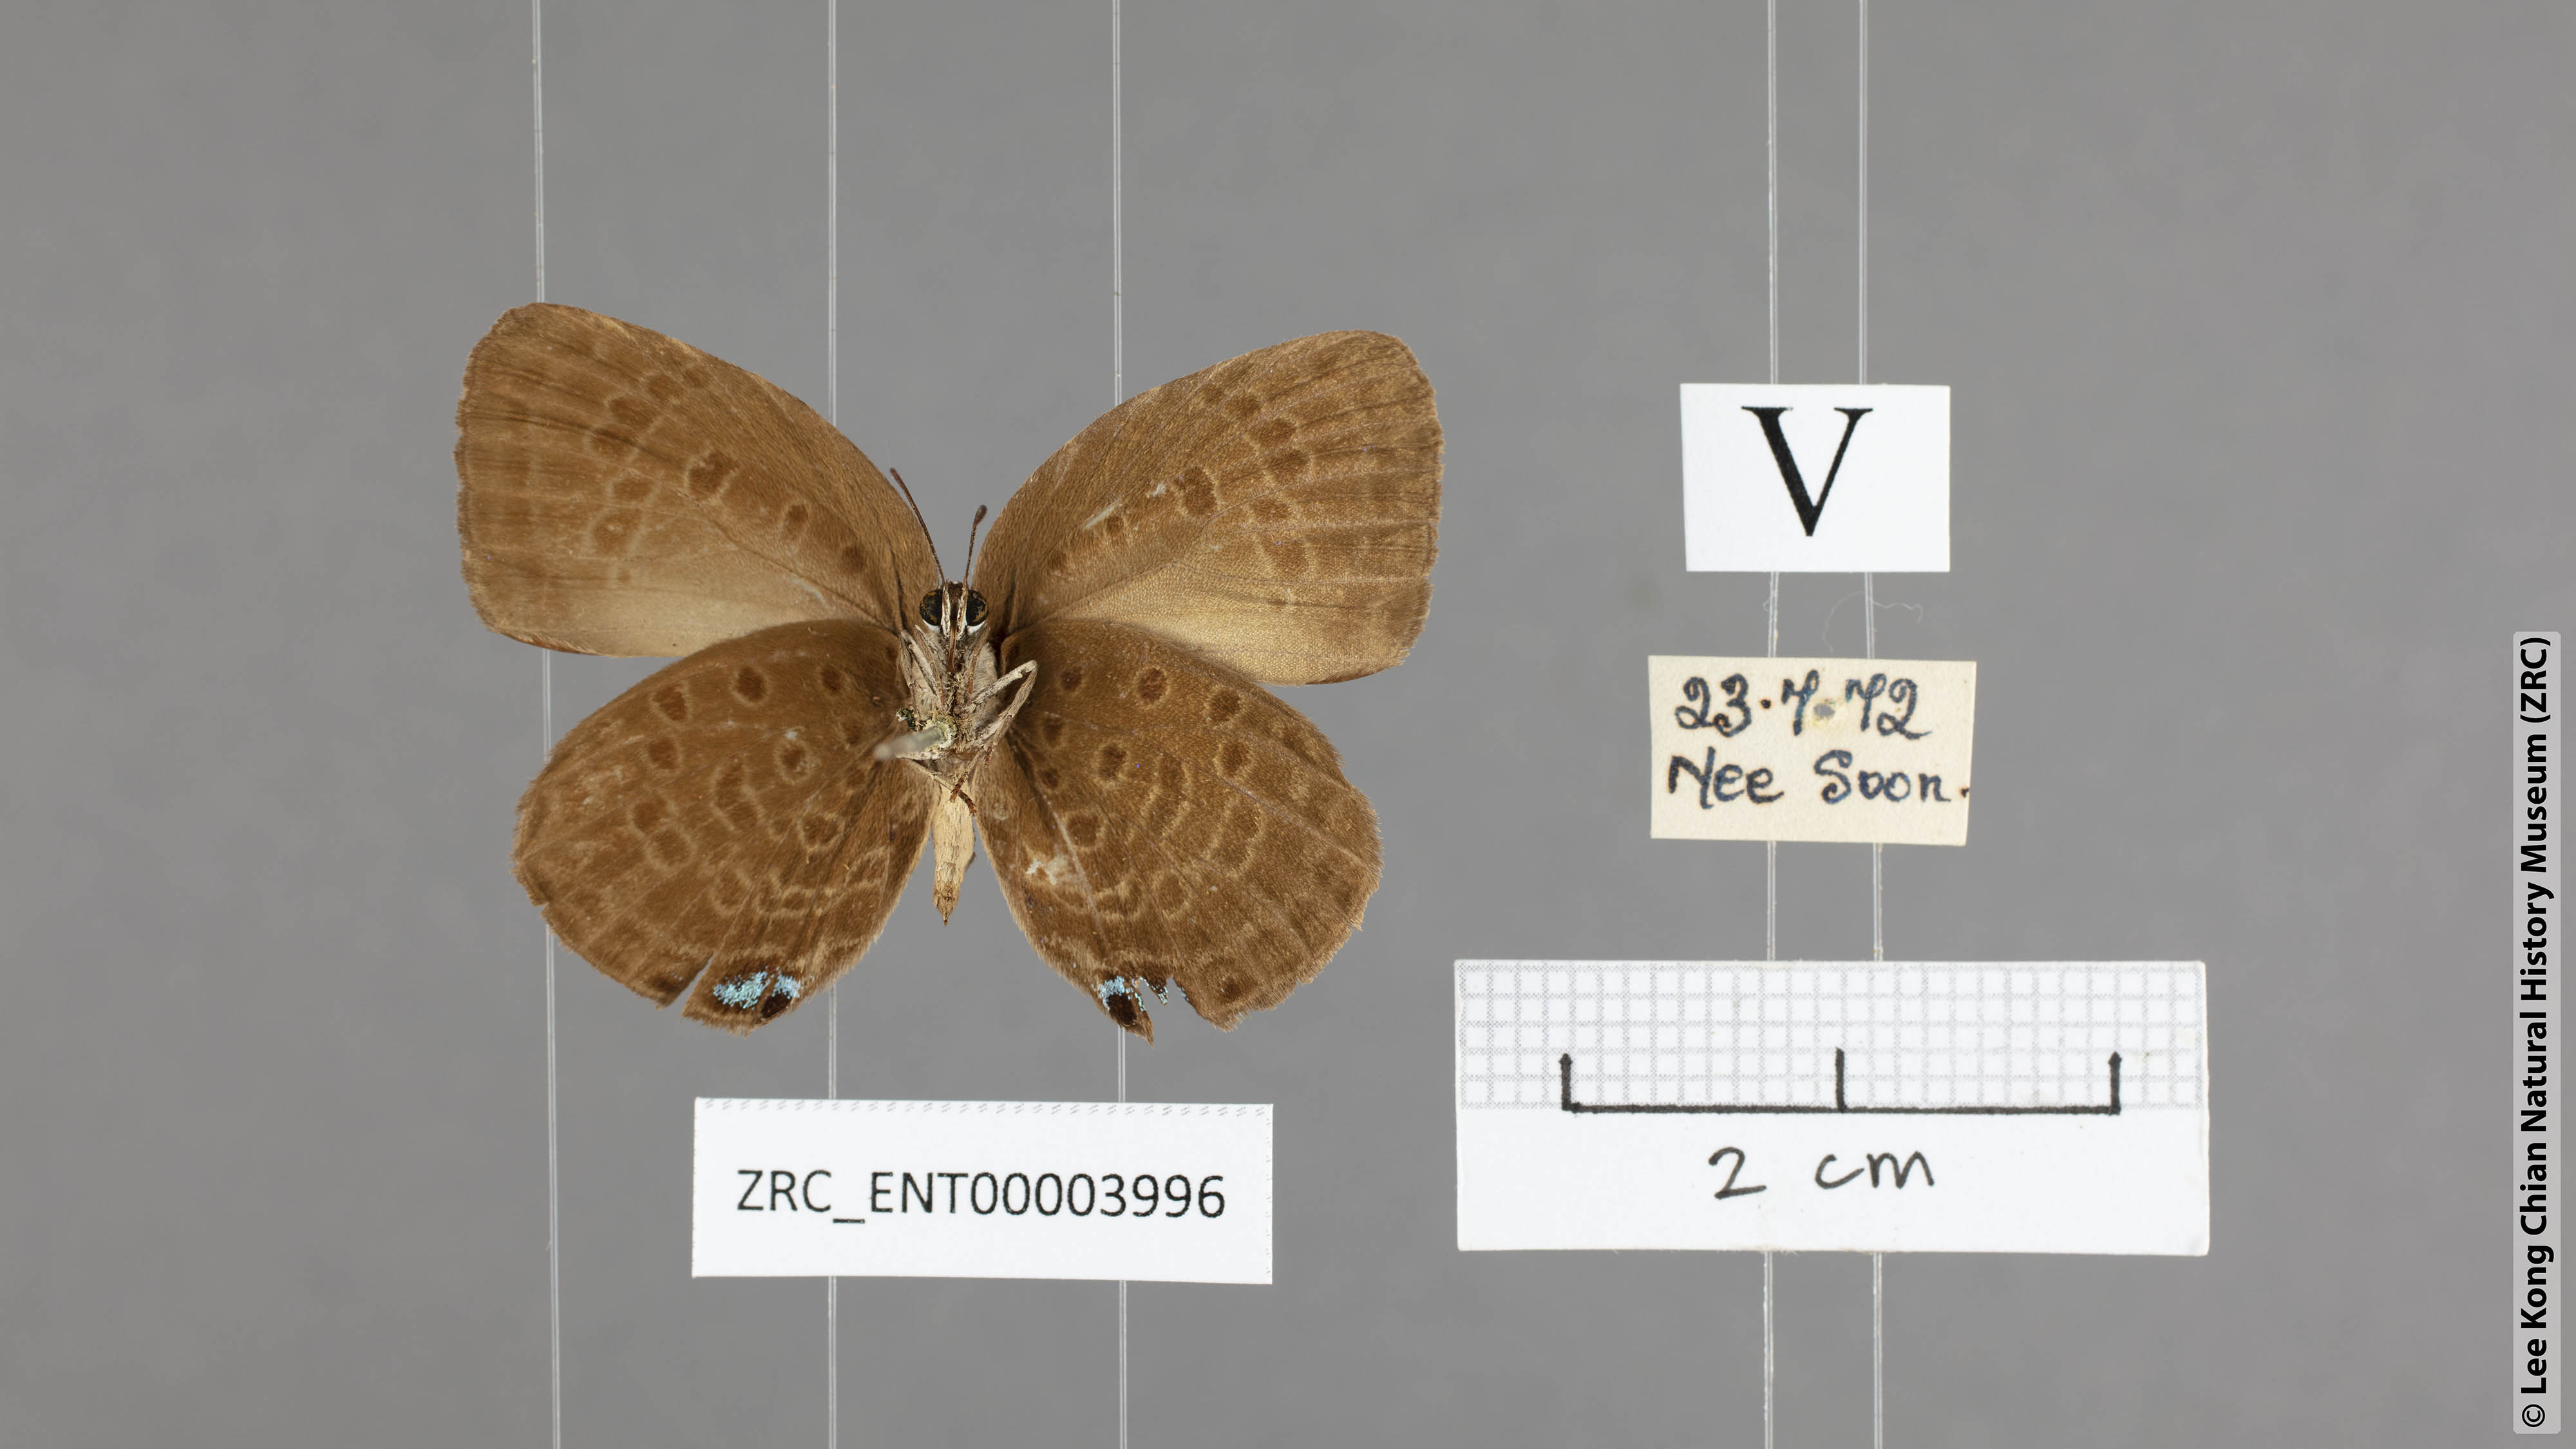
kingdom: Animalia
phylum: Arthropoda
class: Insecta
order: Lepidoptera
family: Lycaenidae
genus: Arhopala
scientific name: Arhopala metamuta
